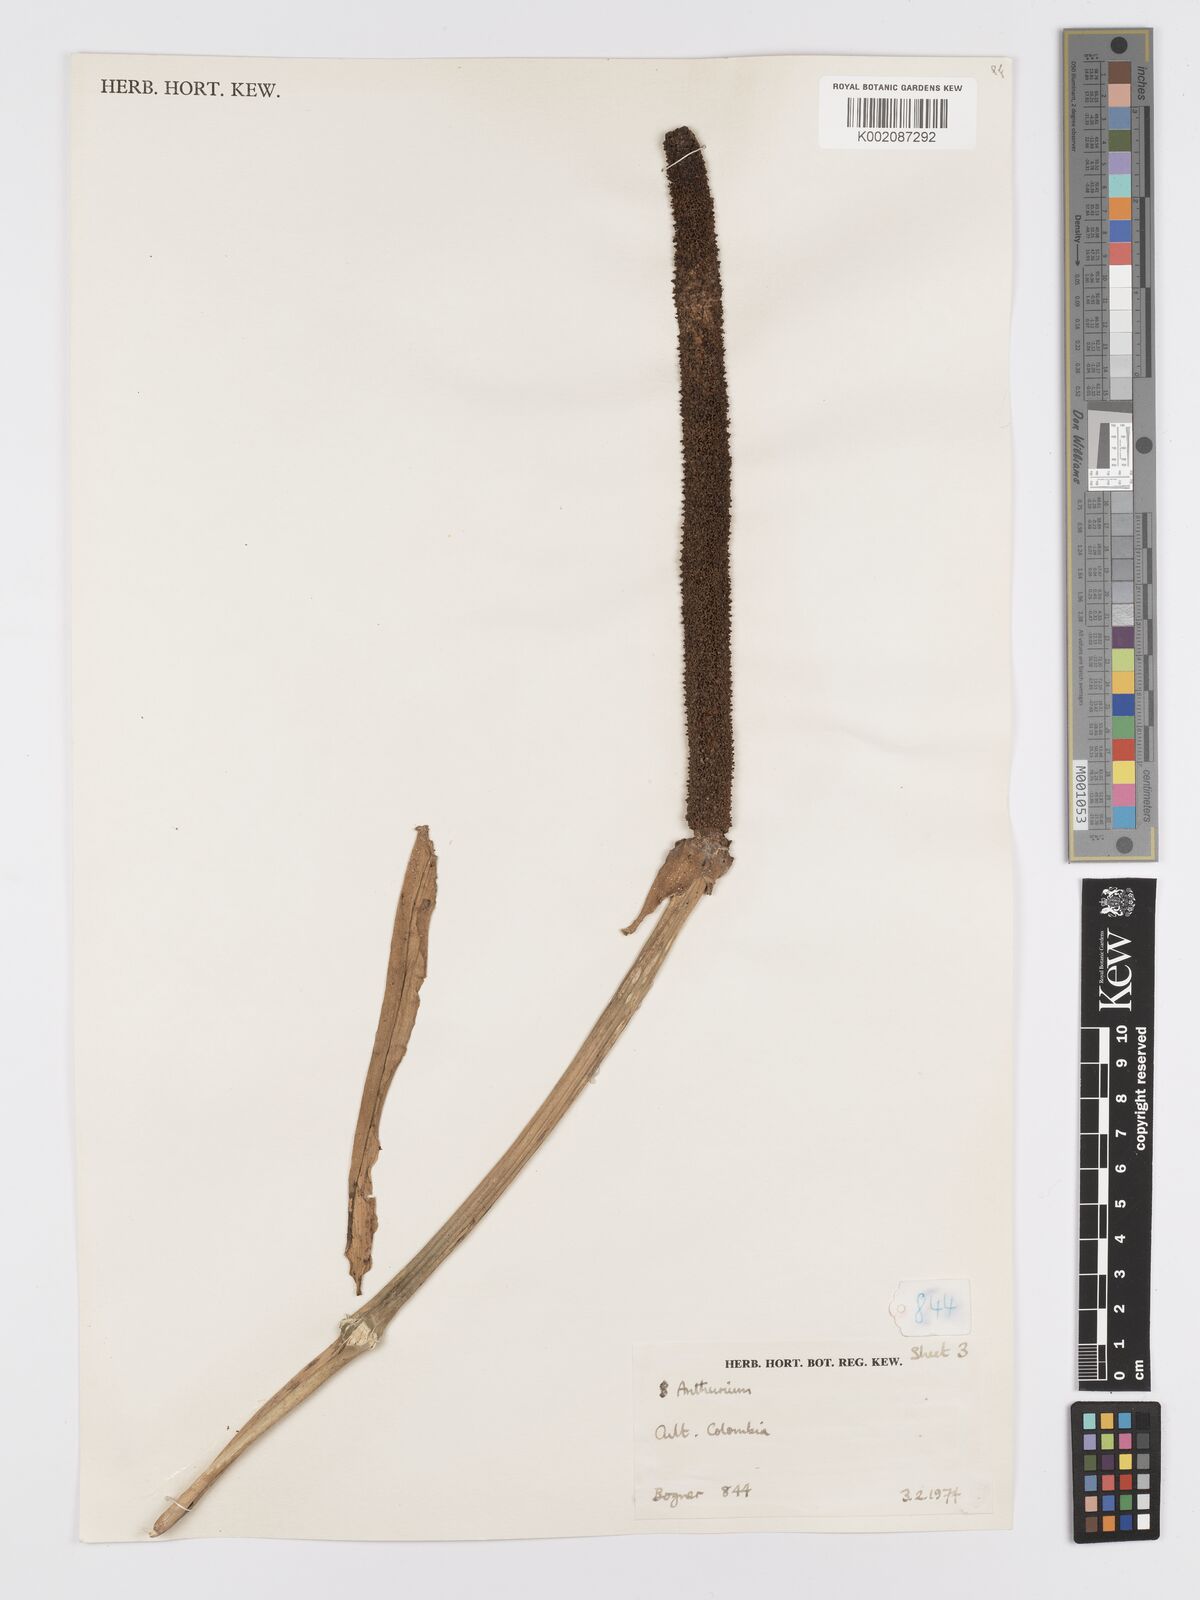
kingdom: Plantae
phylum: Tracheophyta
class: Liliopsida
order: Alismatales
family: Araceae
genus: Anthurium
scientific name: Anthurium
